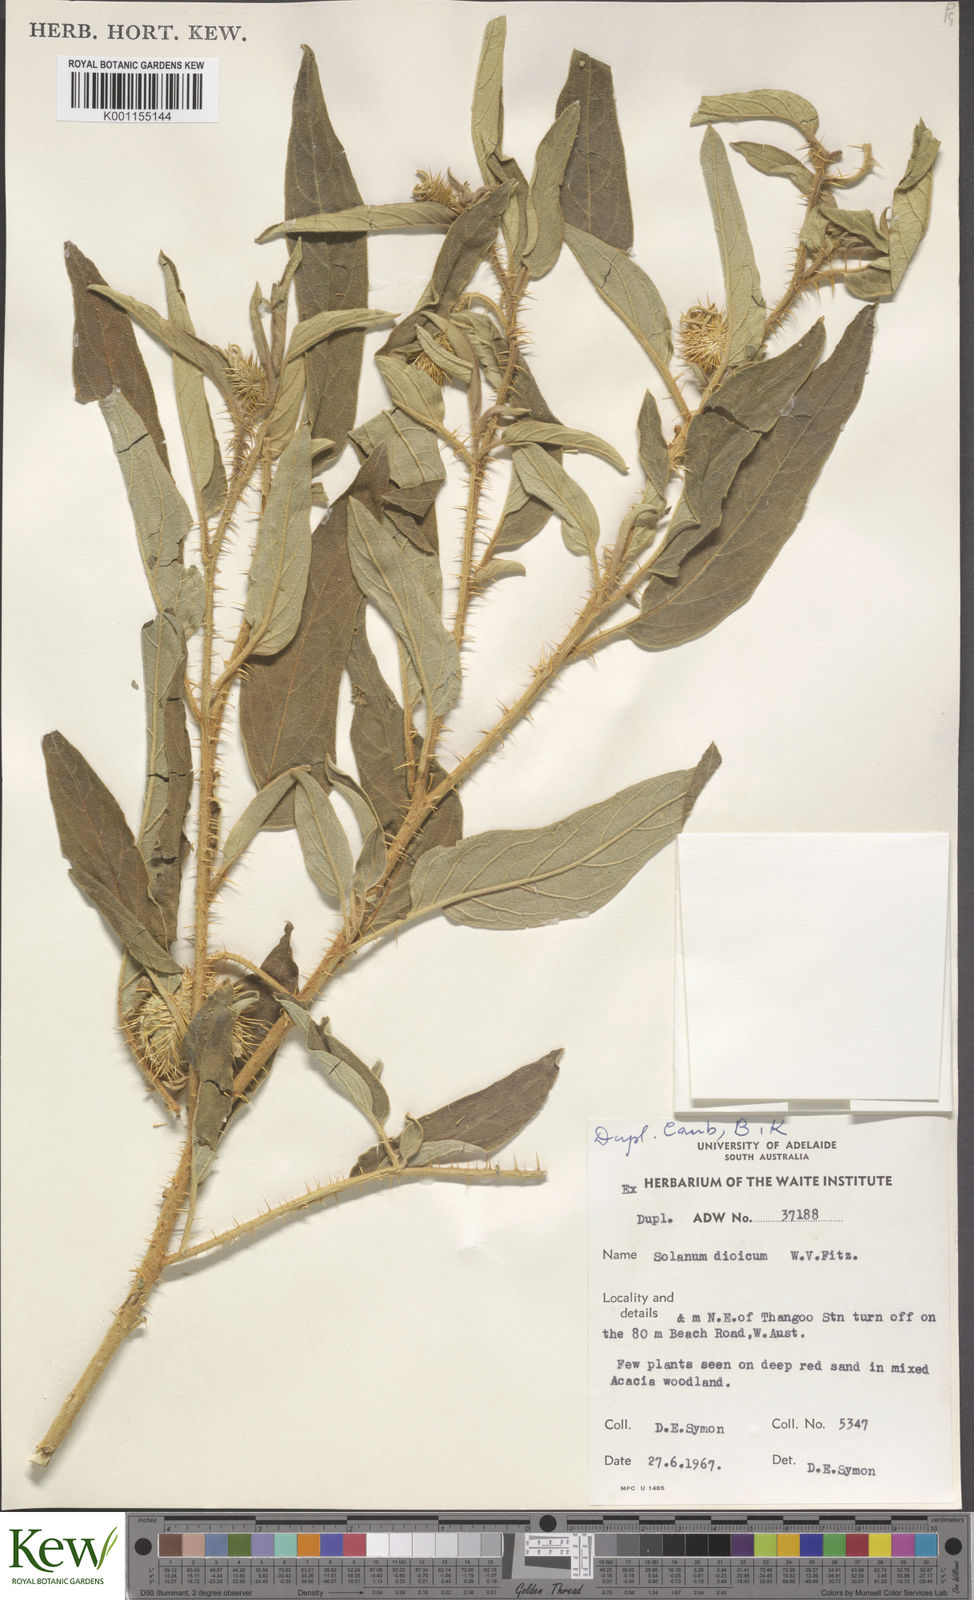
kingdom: Plantae
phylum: Tracheophyta
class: Magnoliopsida
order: Solanales
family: Solanaceae
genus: Solanum
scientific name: Solanum dioicum
